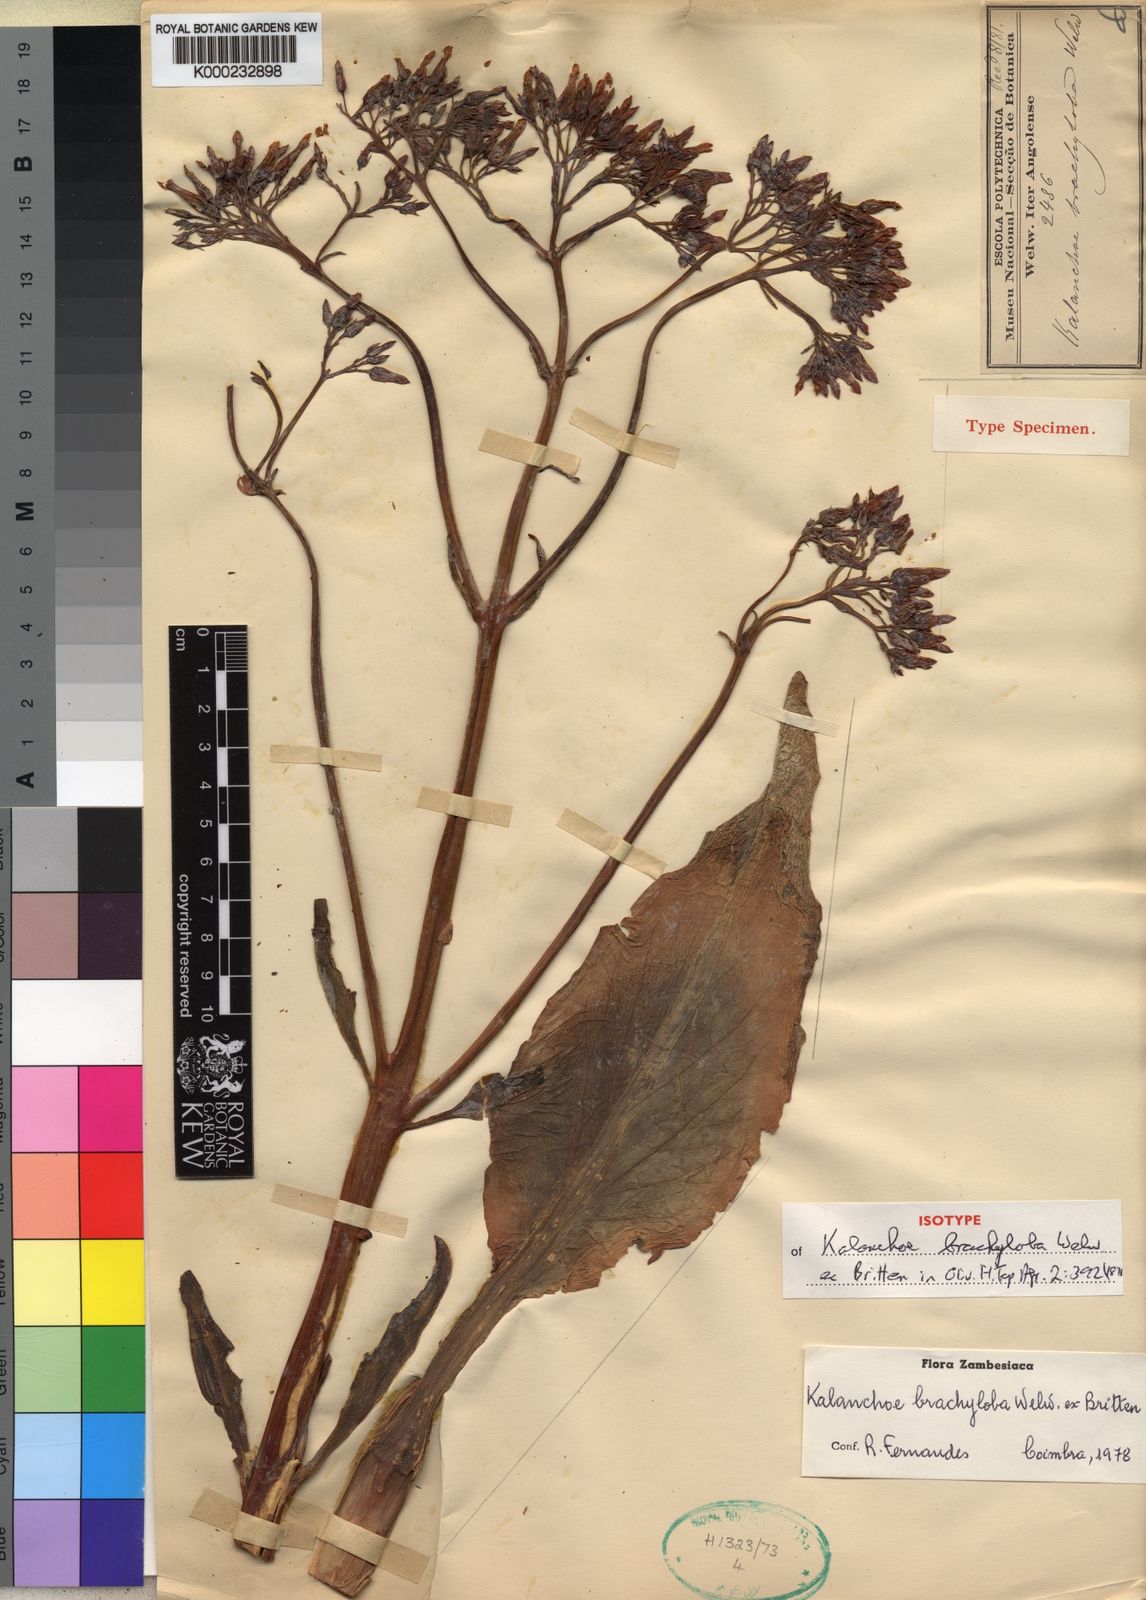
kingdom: Plantae
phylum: Tracheophyta
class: Magnoliopsida
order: Saxifragales
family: Crassulaceae
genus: Kalanchoe
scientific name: Kalanchoe brachyloba
